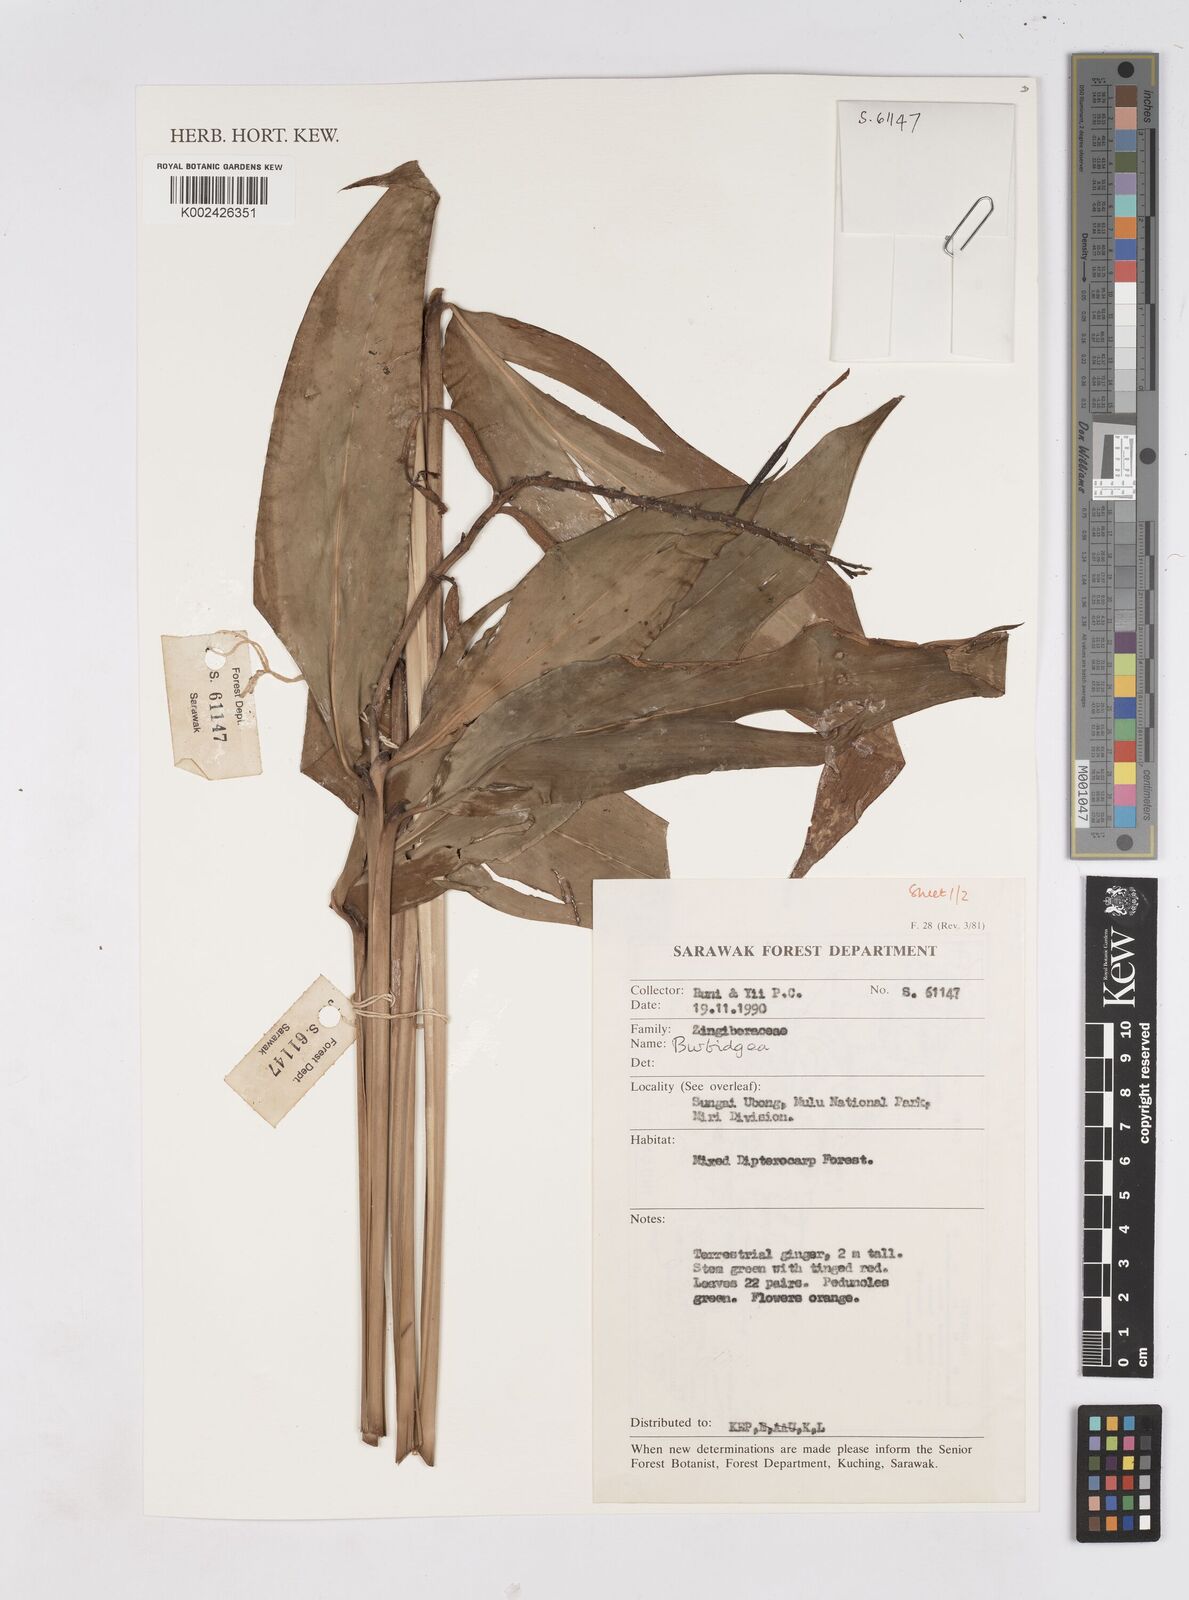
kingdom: Plantae
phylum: Tracheophyta
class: Liliopsida
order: Zingiberales
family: Zingiberaceae
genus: Burbidgea
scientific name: Burbidgea
